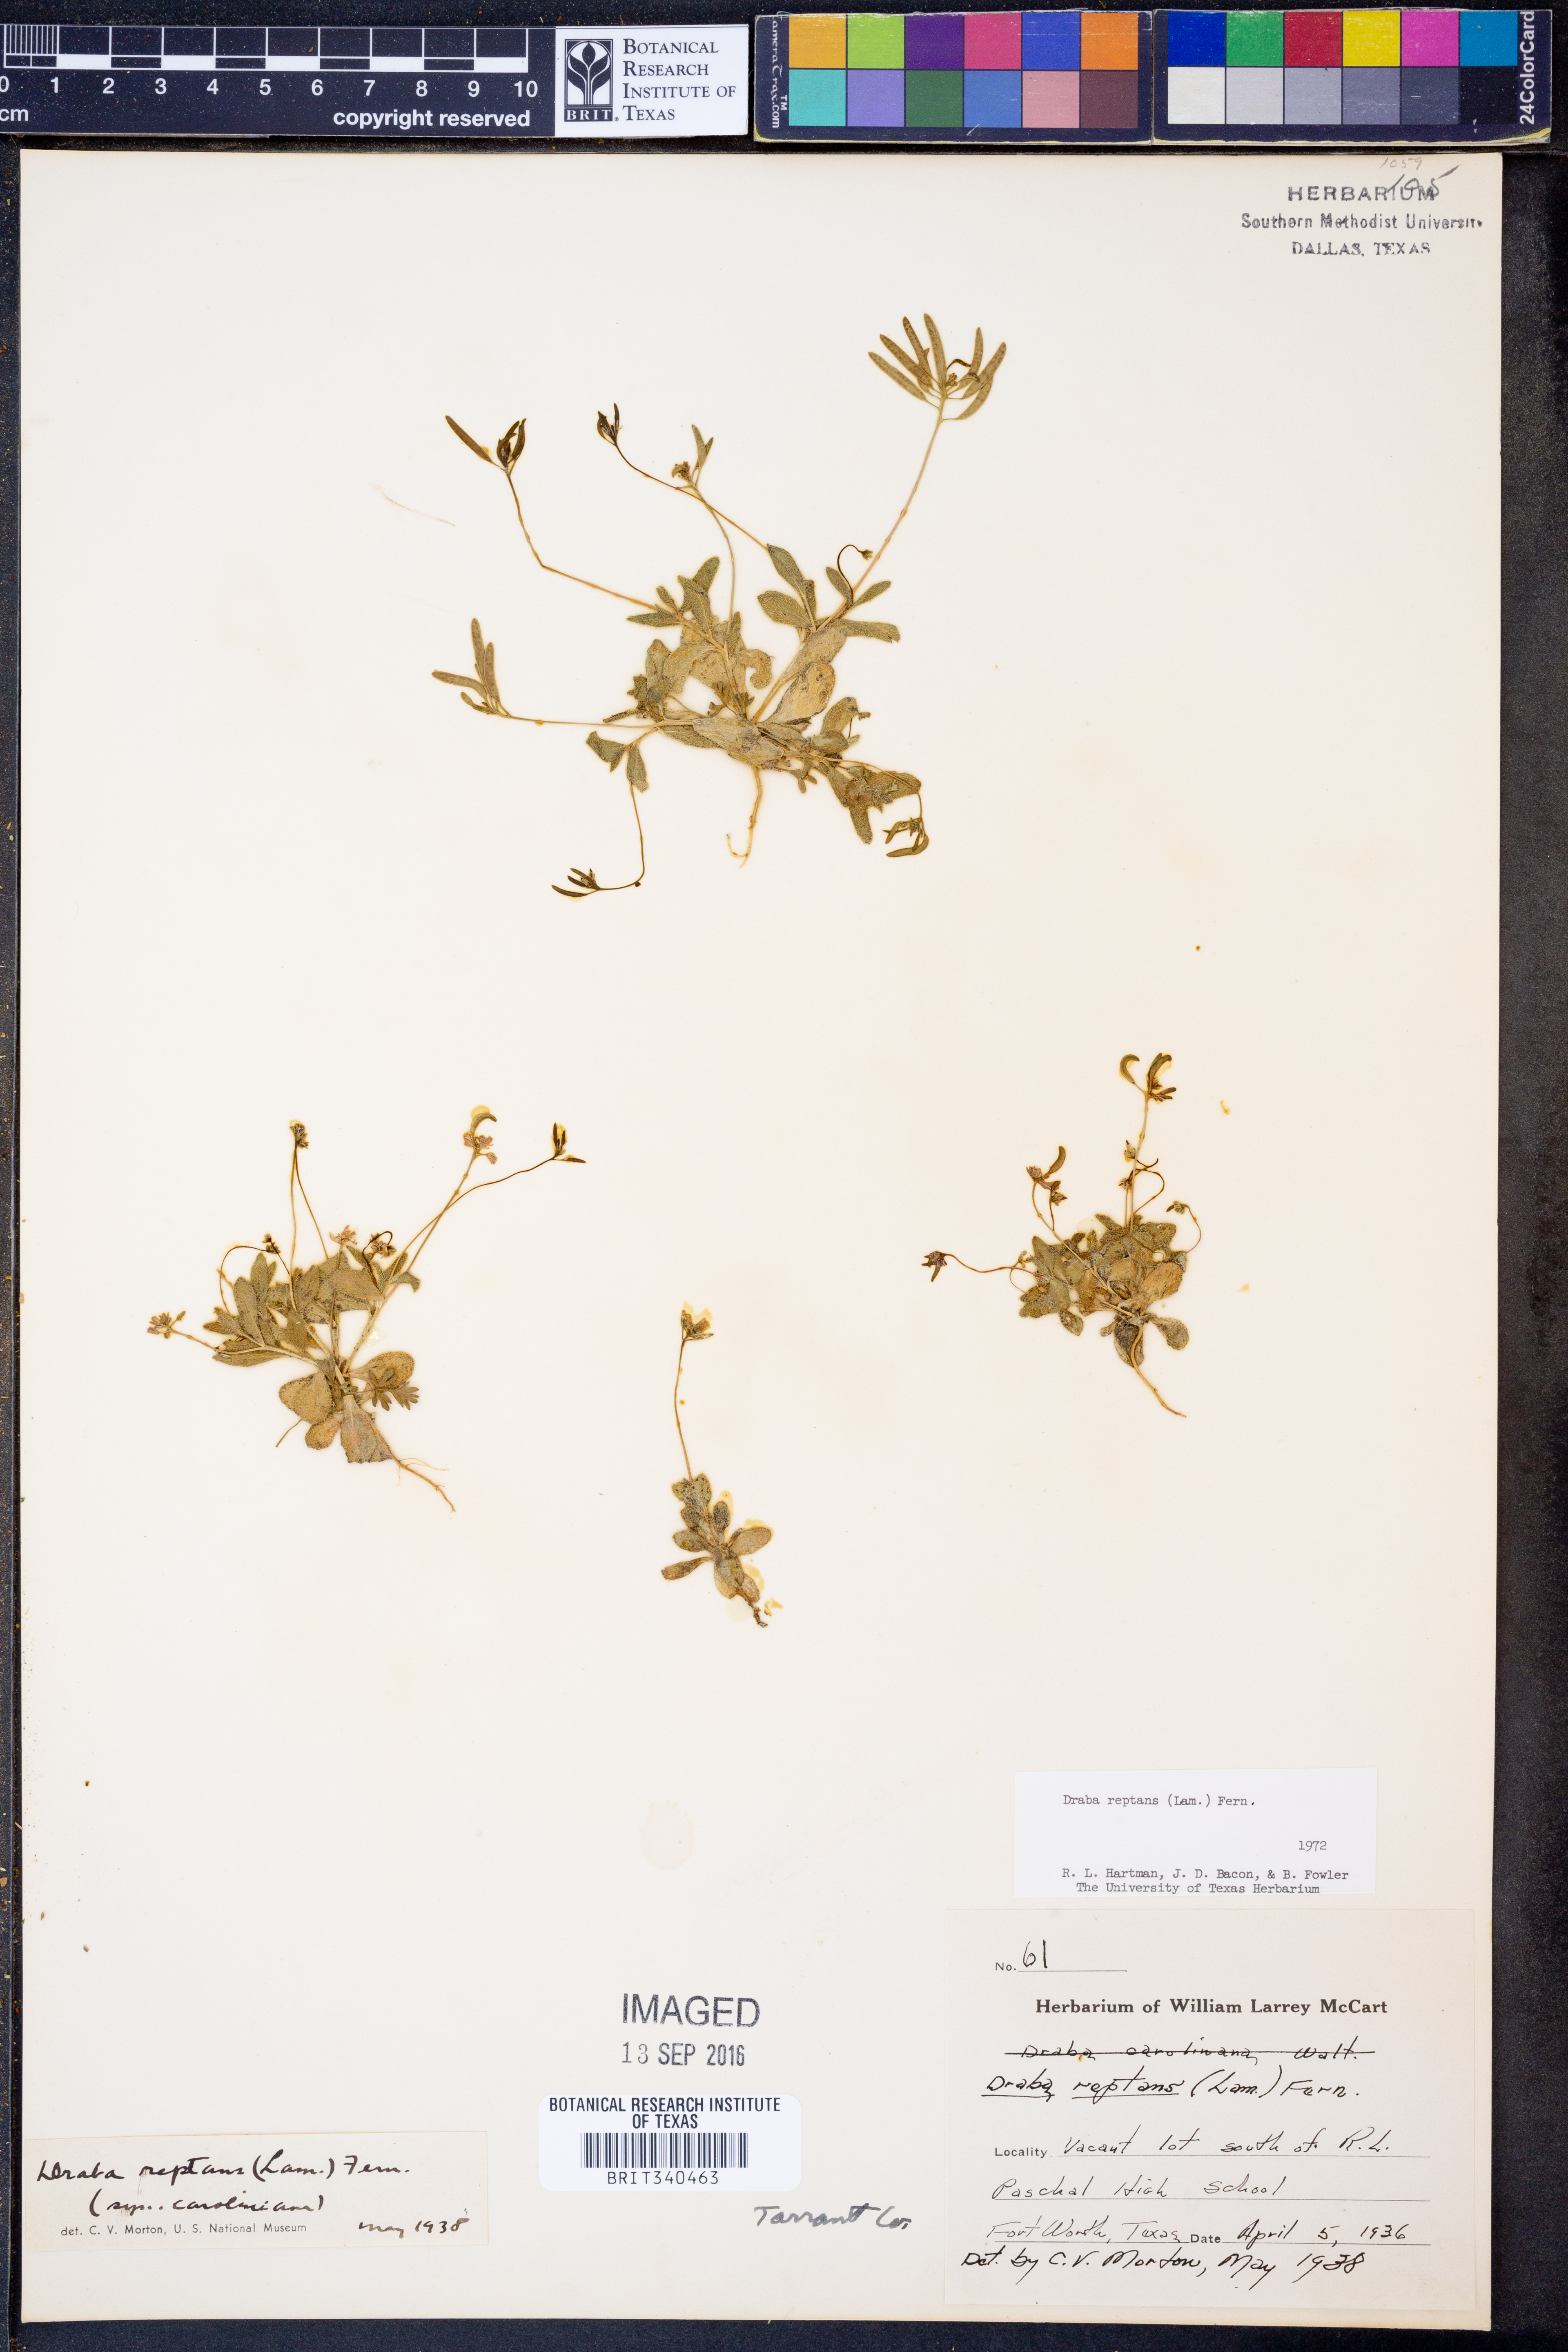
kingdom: Plantae
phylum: Tracheophyta
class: Magnoliopsida
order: Brassicales
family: Brassicaceae
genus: Tomostima
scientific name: Tomostima reptans
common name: Carolina draba
